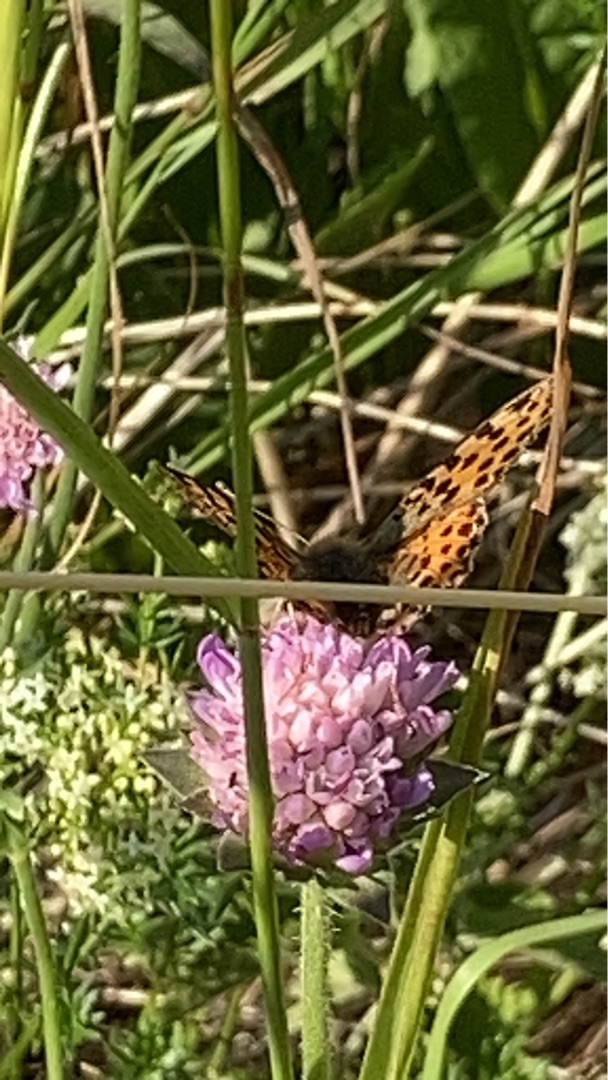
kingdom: Animalia
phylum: Arthropoda
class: Insecta
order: Lepidoptera
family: Nymphalidae
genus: Issoria
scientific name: Issoria lathonia
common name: Storplettet perlemorsommerfugl
